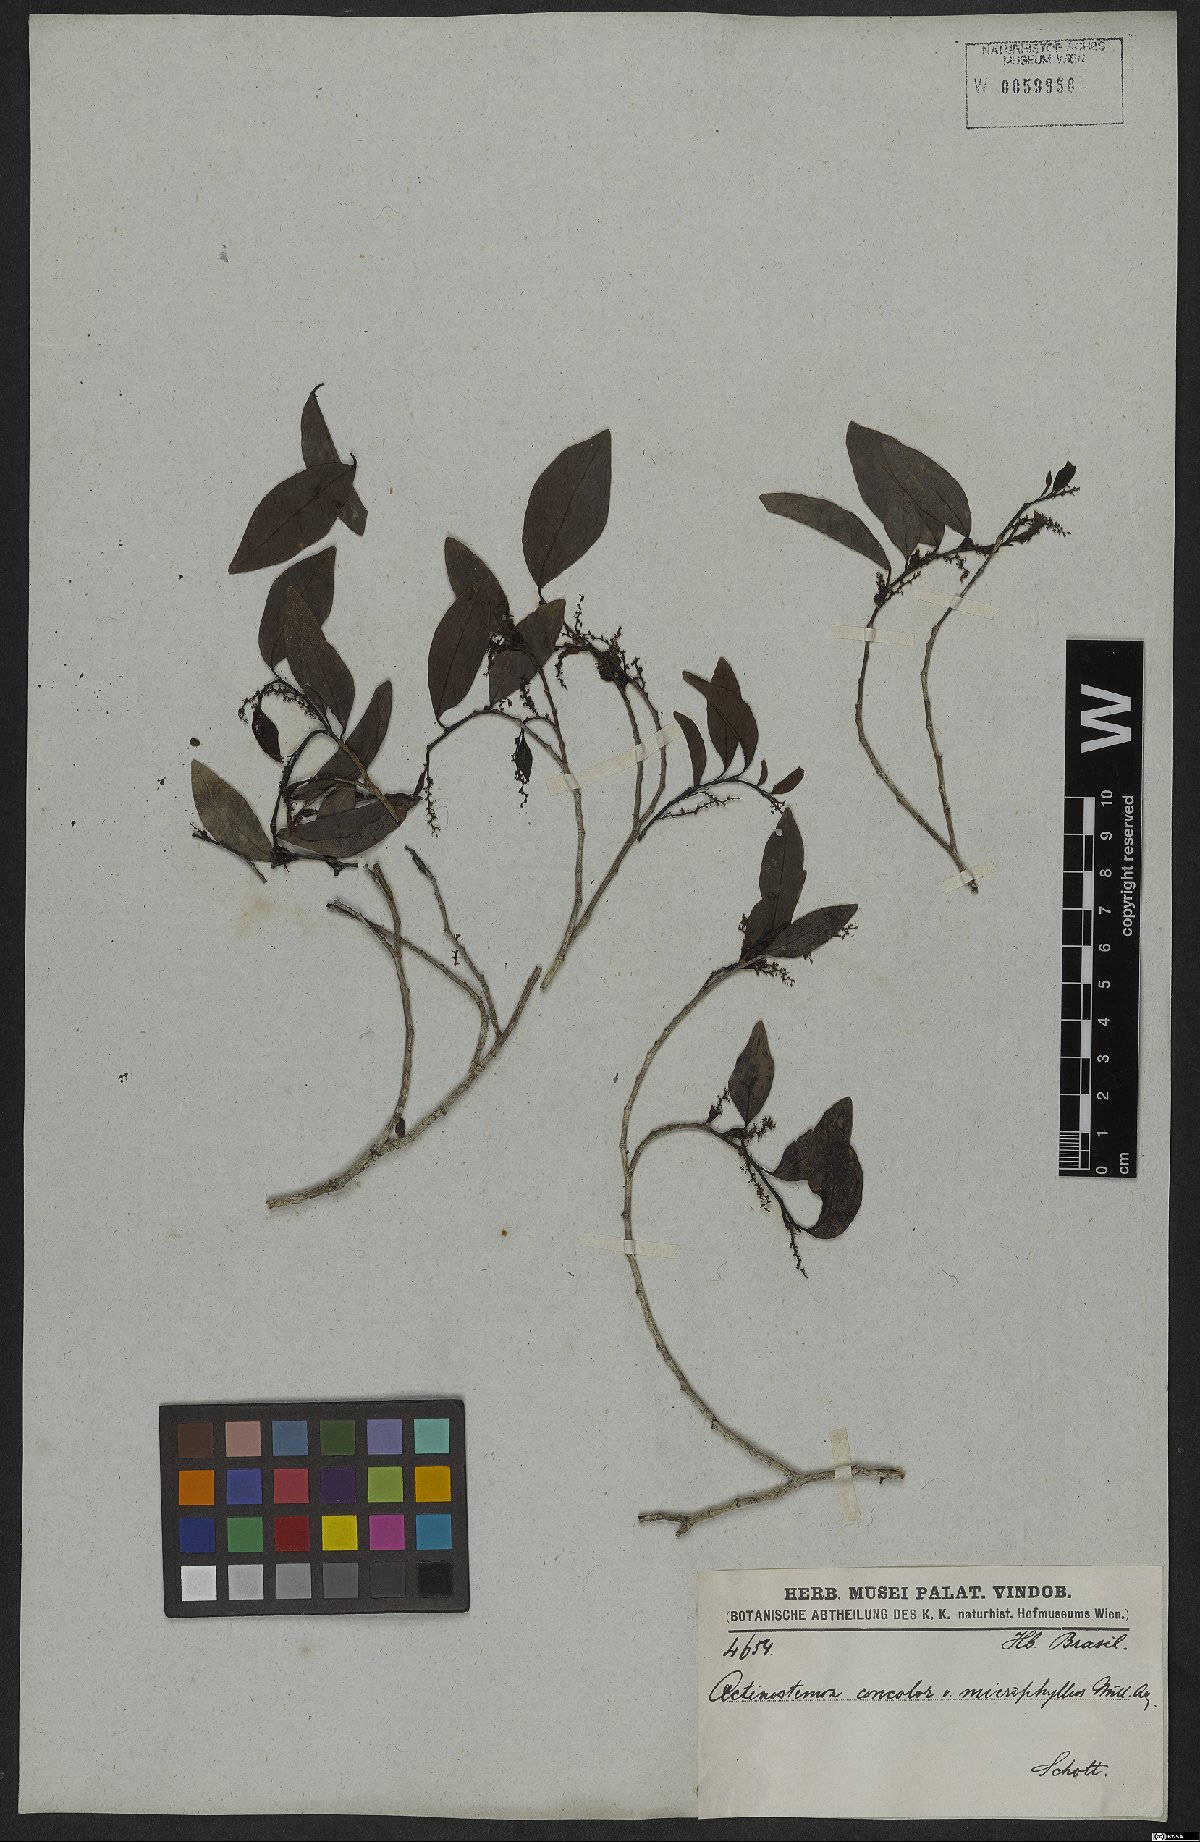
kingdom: Plantae
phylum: Tracheophyta
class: Magnoliopsida
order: Malpighiales
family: Euphorbiaceae
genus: Actinostemon
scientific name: Actinostemon concolor
